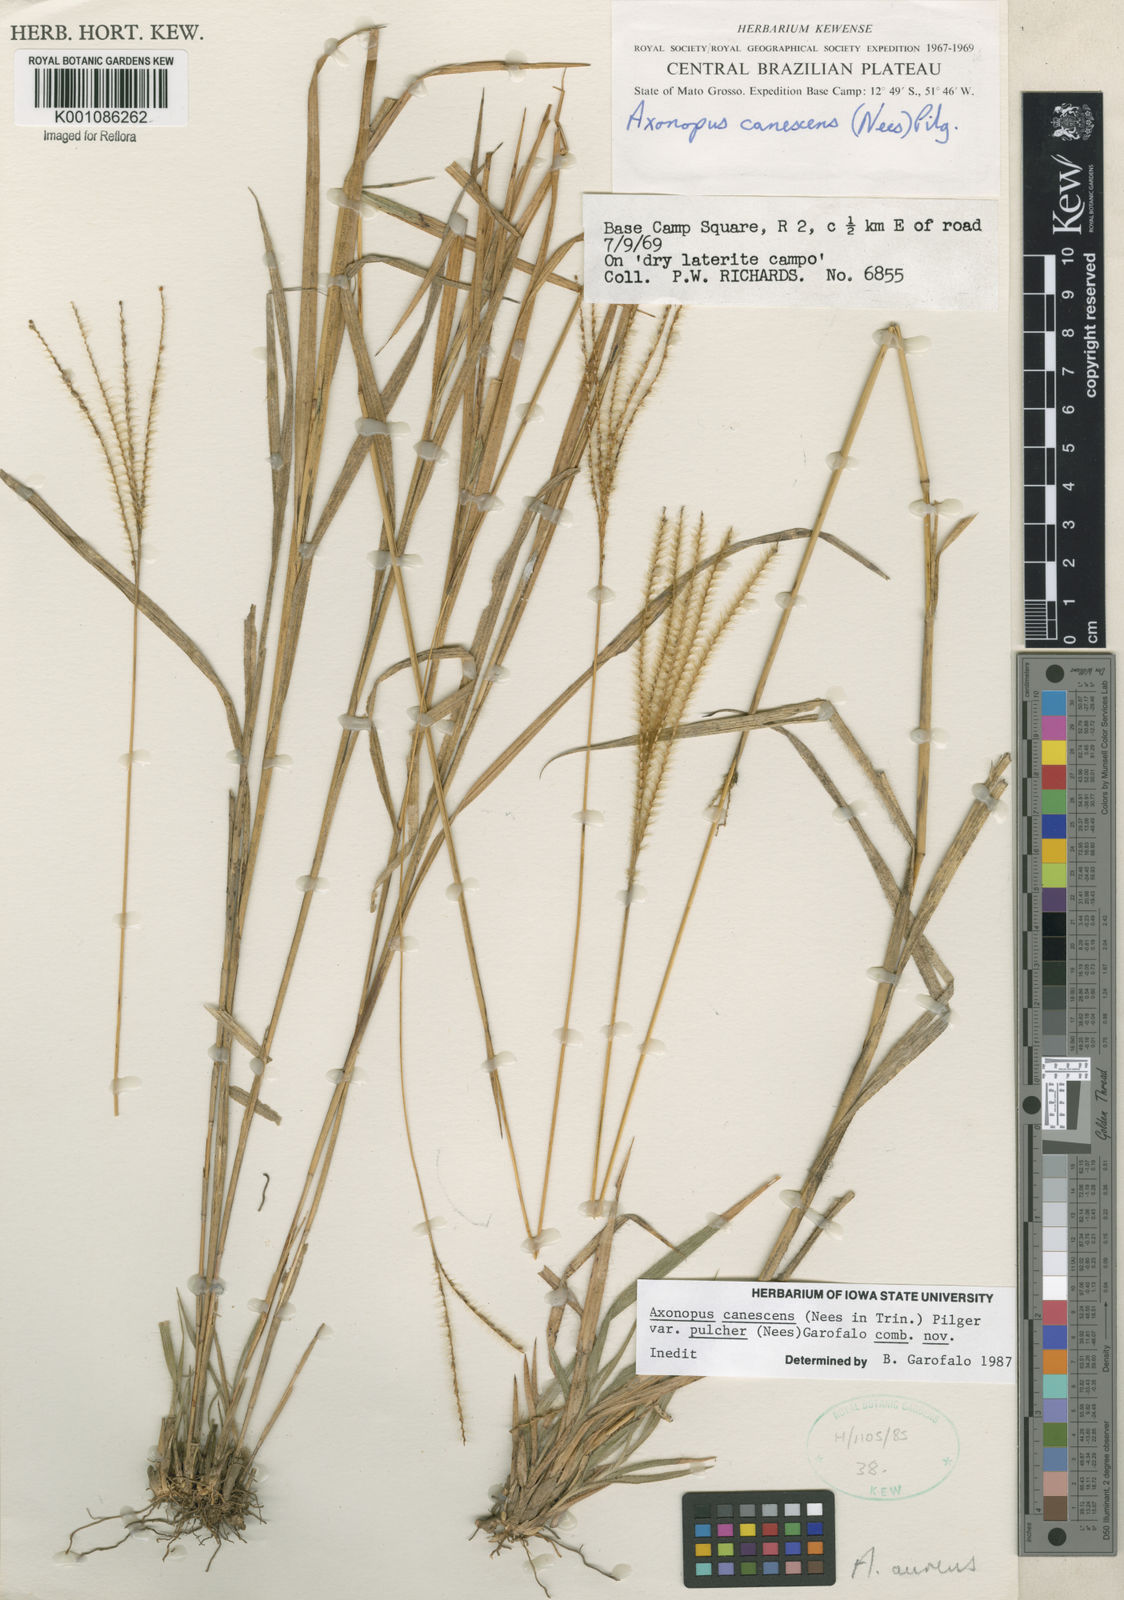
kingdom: Plantae
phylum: Tracheophyta
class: Liliopsida
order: Poales
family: Poaceae
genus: Axonopus
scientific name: Axonopus aureus
